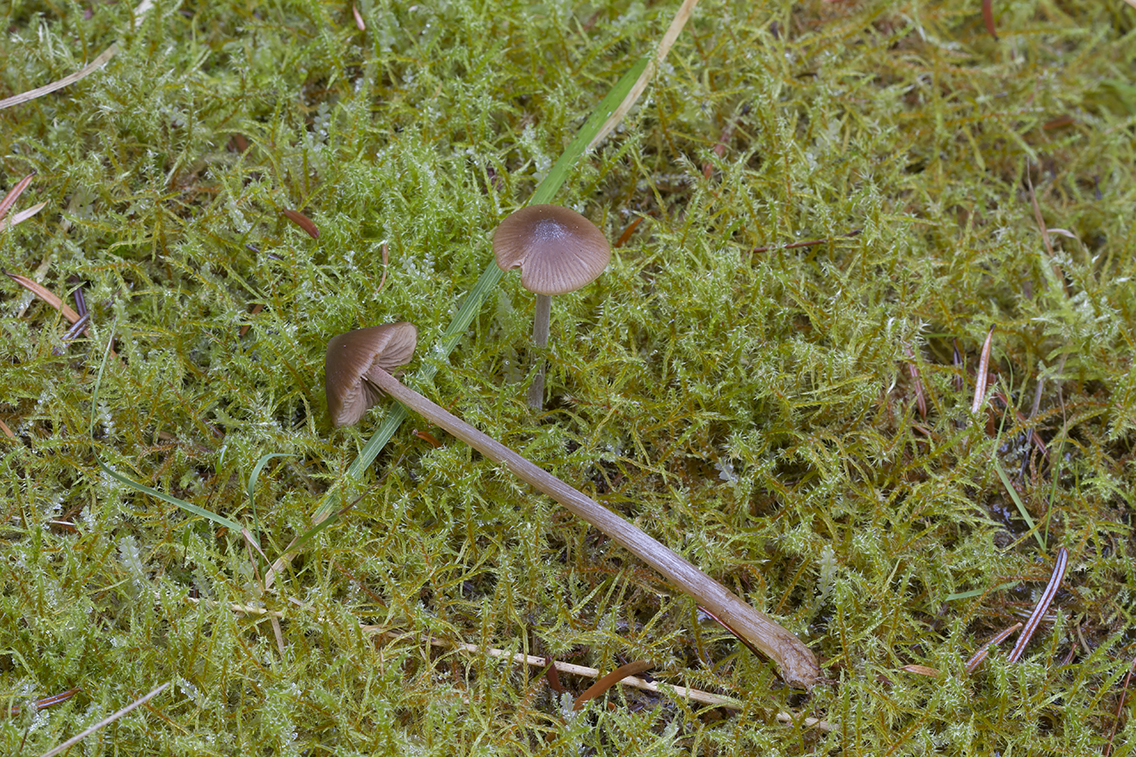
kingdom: Fungi
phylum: Basidiomycota
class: Agaricomycetes
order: Agaricales
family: Entolomataceae
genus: Entoloma
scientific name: Entoloma cetratum
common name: voks-rødblad
